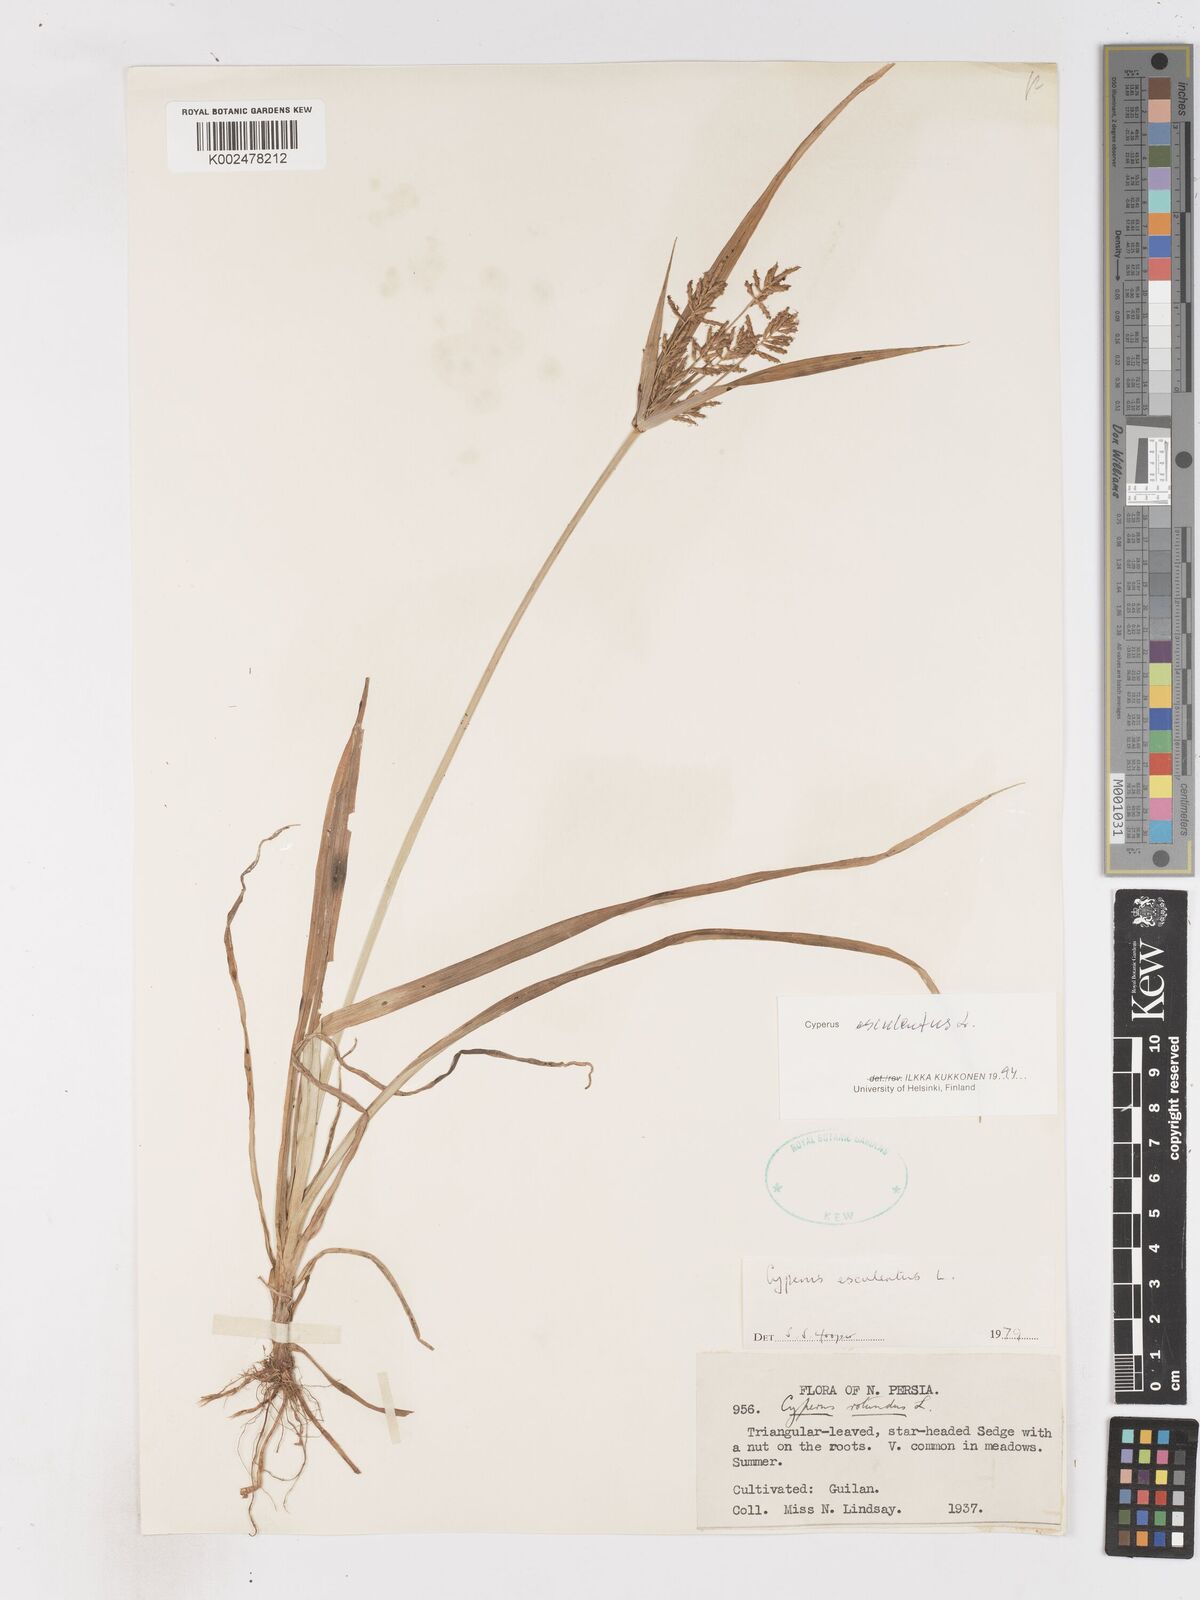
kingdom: Plantae
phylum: Tracheophyta
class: Liliopsida
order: Poales
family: Cyperaceae
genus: Cyperus
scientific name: Cyperus esculentus
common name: Yellow nutsedge
